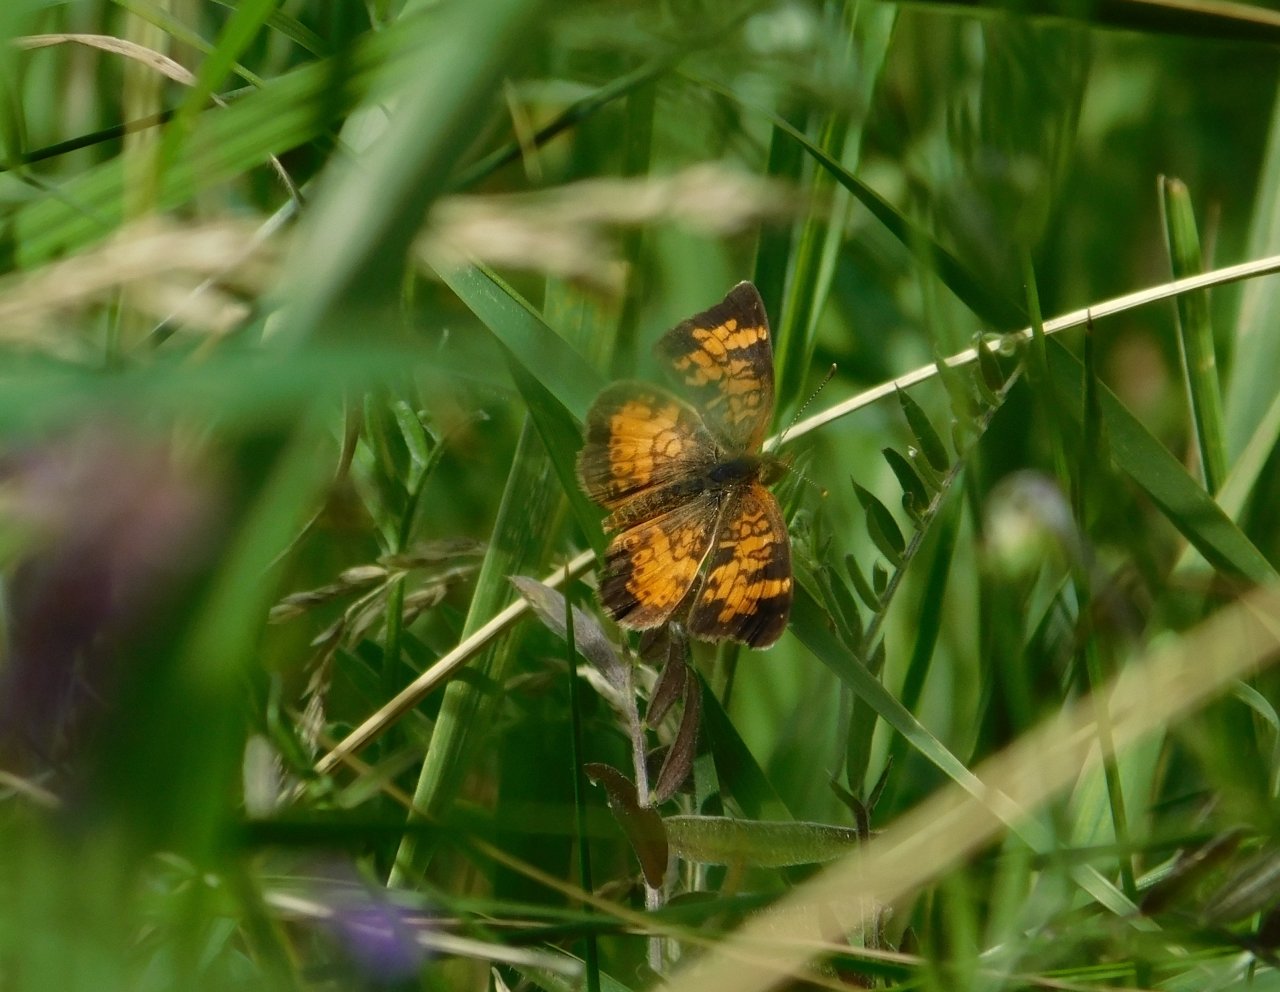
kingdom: Animalia
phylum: Arthropoda
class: Insecta
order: Lepidoptera
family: Nymphalidae
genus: Phyciodes
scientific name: Phyciodes tharos
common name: Northern Crescent
